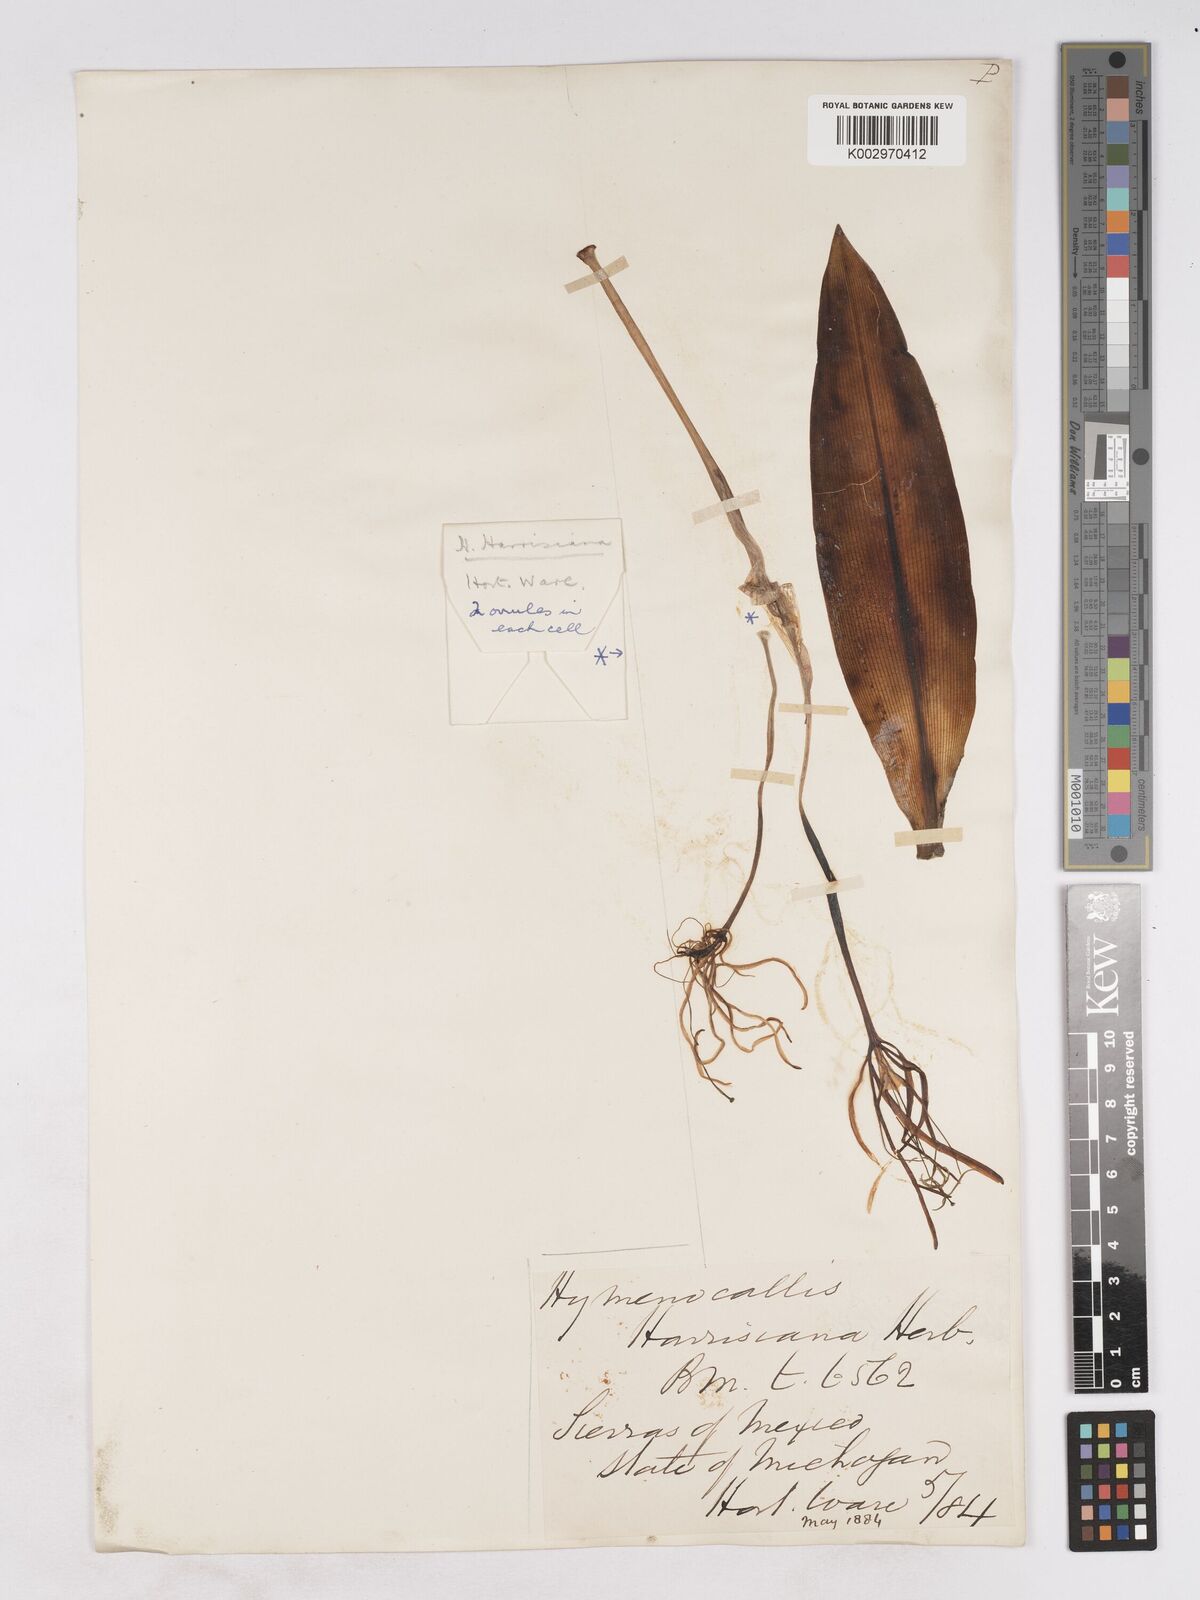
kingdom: Plantae
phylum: Tracheophyta
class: Liliopsida
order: Asparagales
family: Amaryllidaceae
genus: Hymenocallis
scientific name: Hymenocallis harrisiana
